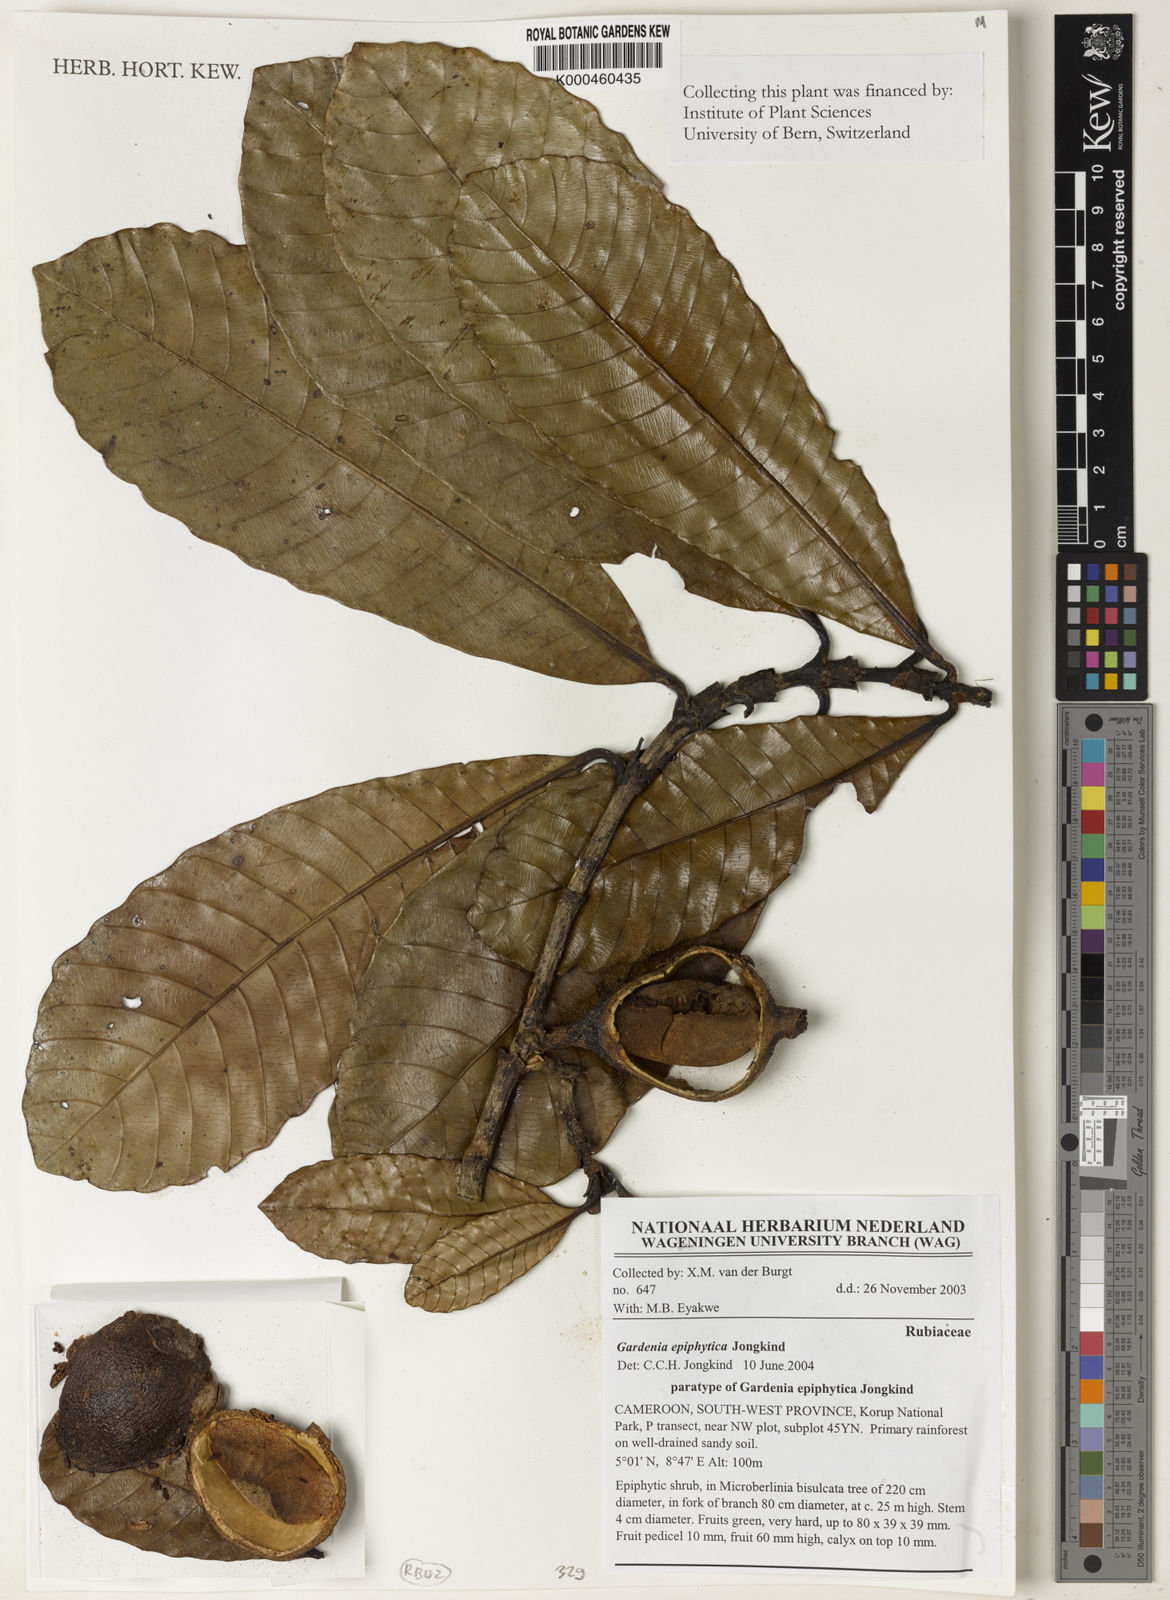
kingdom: Plantae
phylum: Tracheophyta
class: Magnoliopsida
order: Gentianales
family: Rubiaceae
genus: Gardenia
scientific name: Gardenia epiphytica
